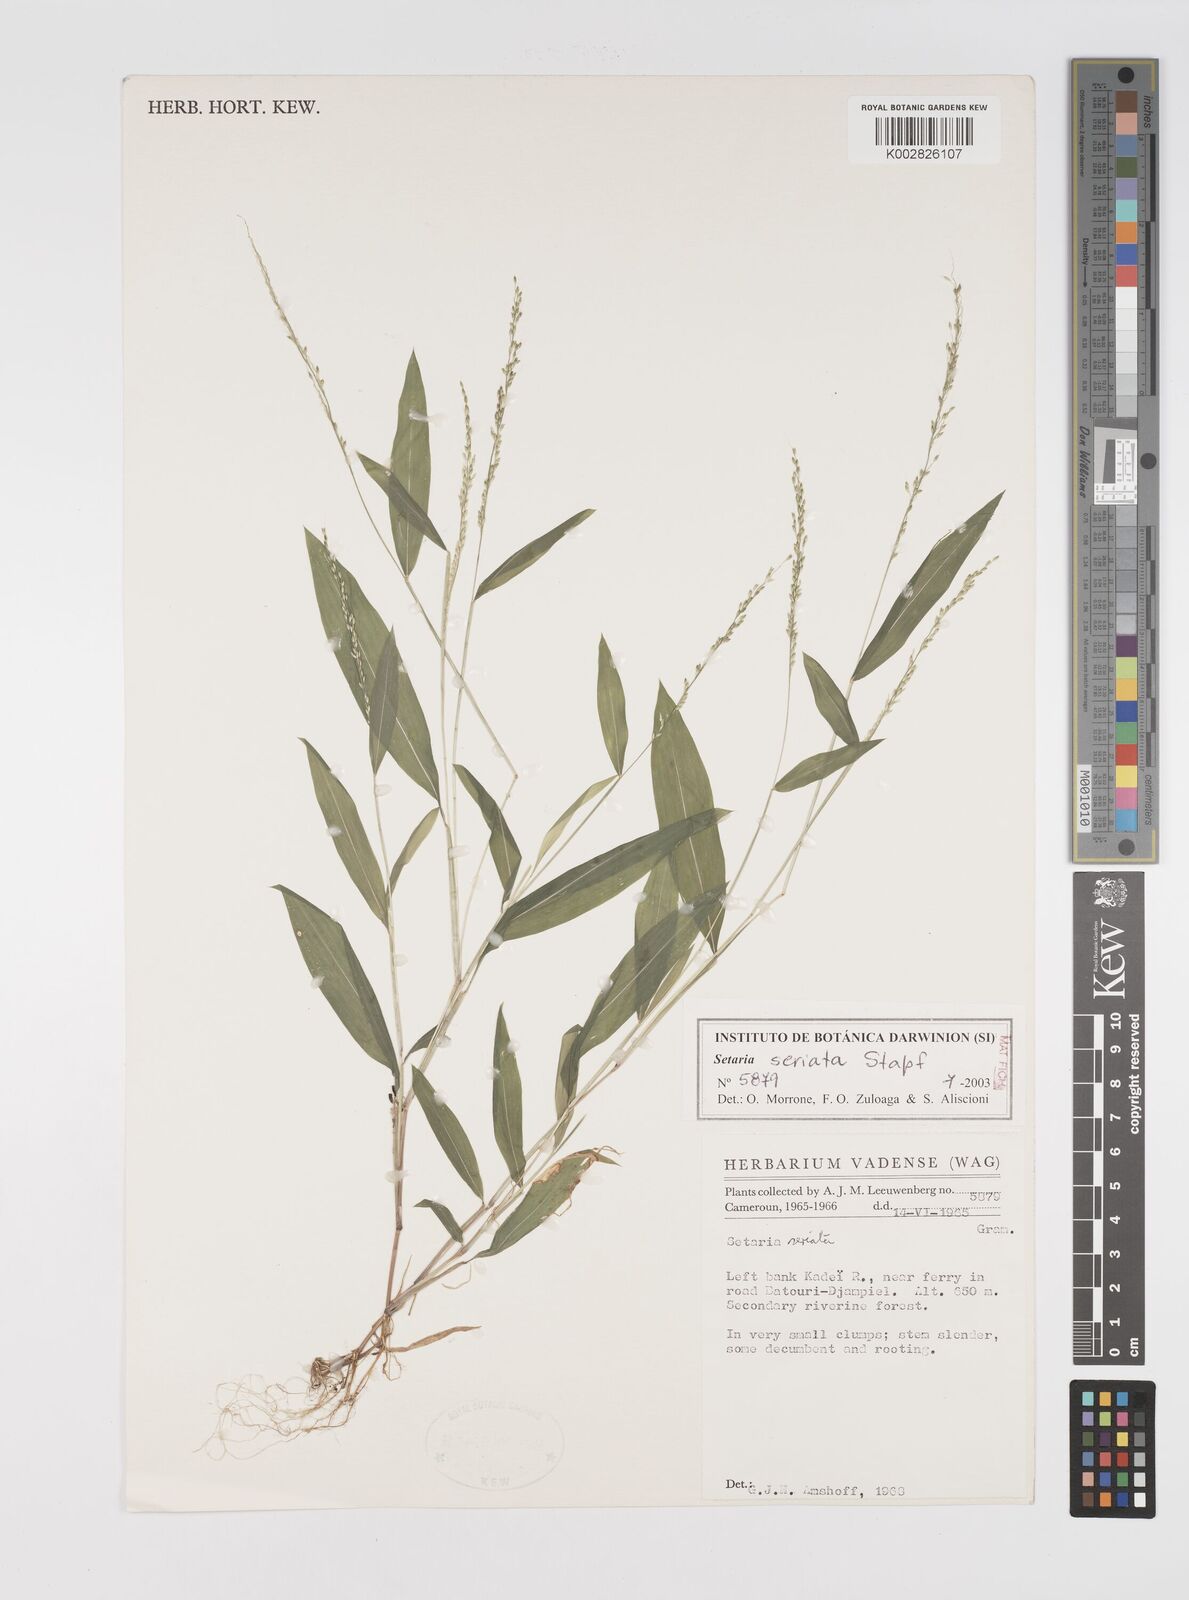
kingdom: Plantae
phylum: Tracheophyta
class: Liliopsida
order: Poales
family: Poaceae
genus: Setaria
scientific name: Setaria kagerensis
